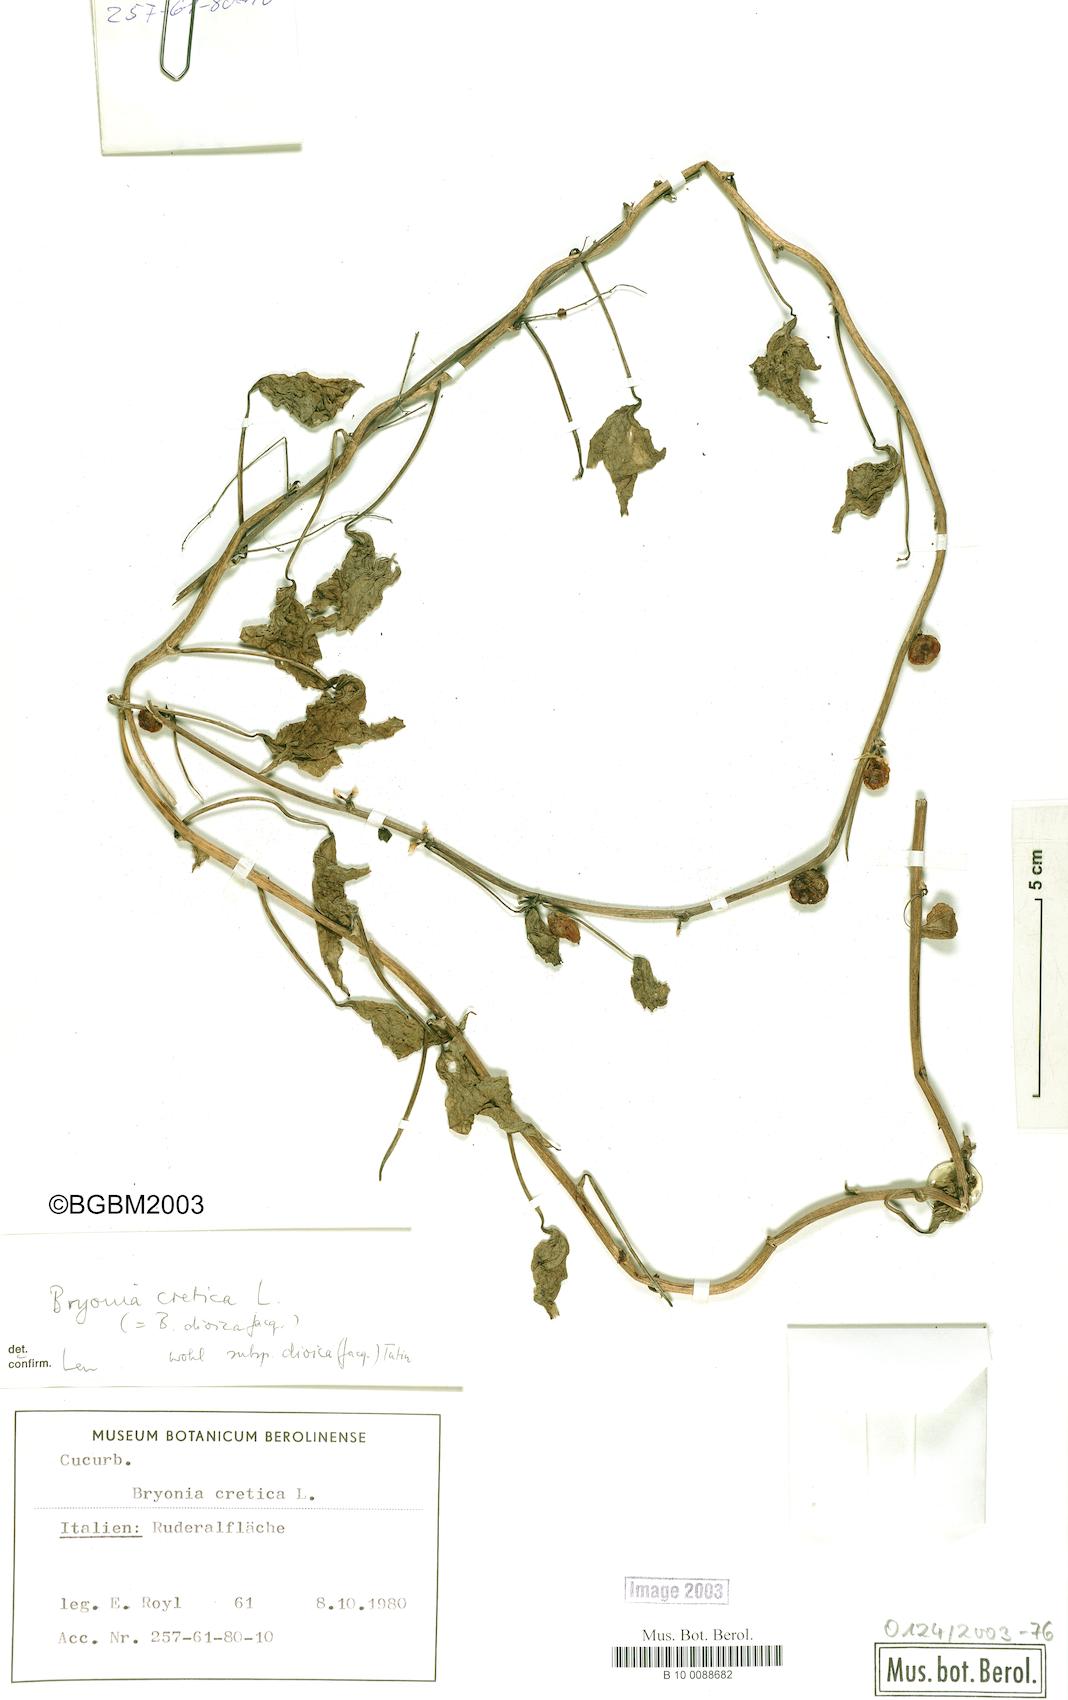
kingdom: Plantae
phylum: Tracheophyta
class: Magnoliopsida
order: Cucurbitales
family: Cucurbitaceae
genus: Bryonia
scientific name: Bryonia cretica
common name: Cretan bryony
